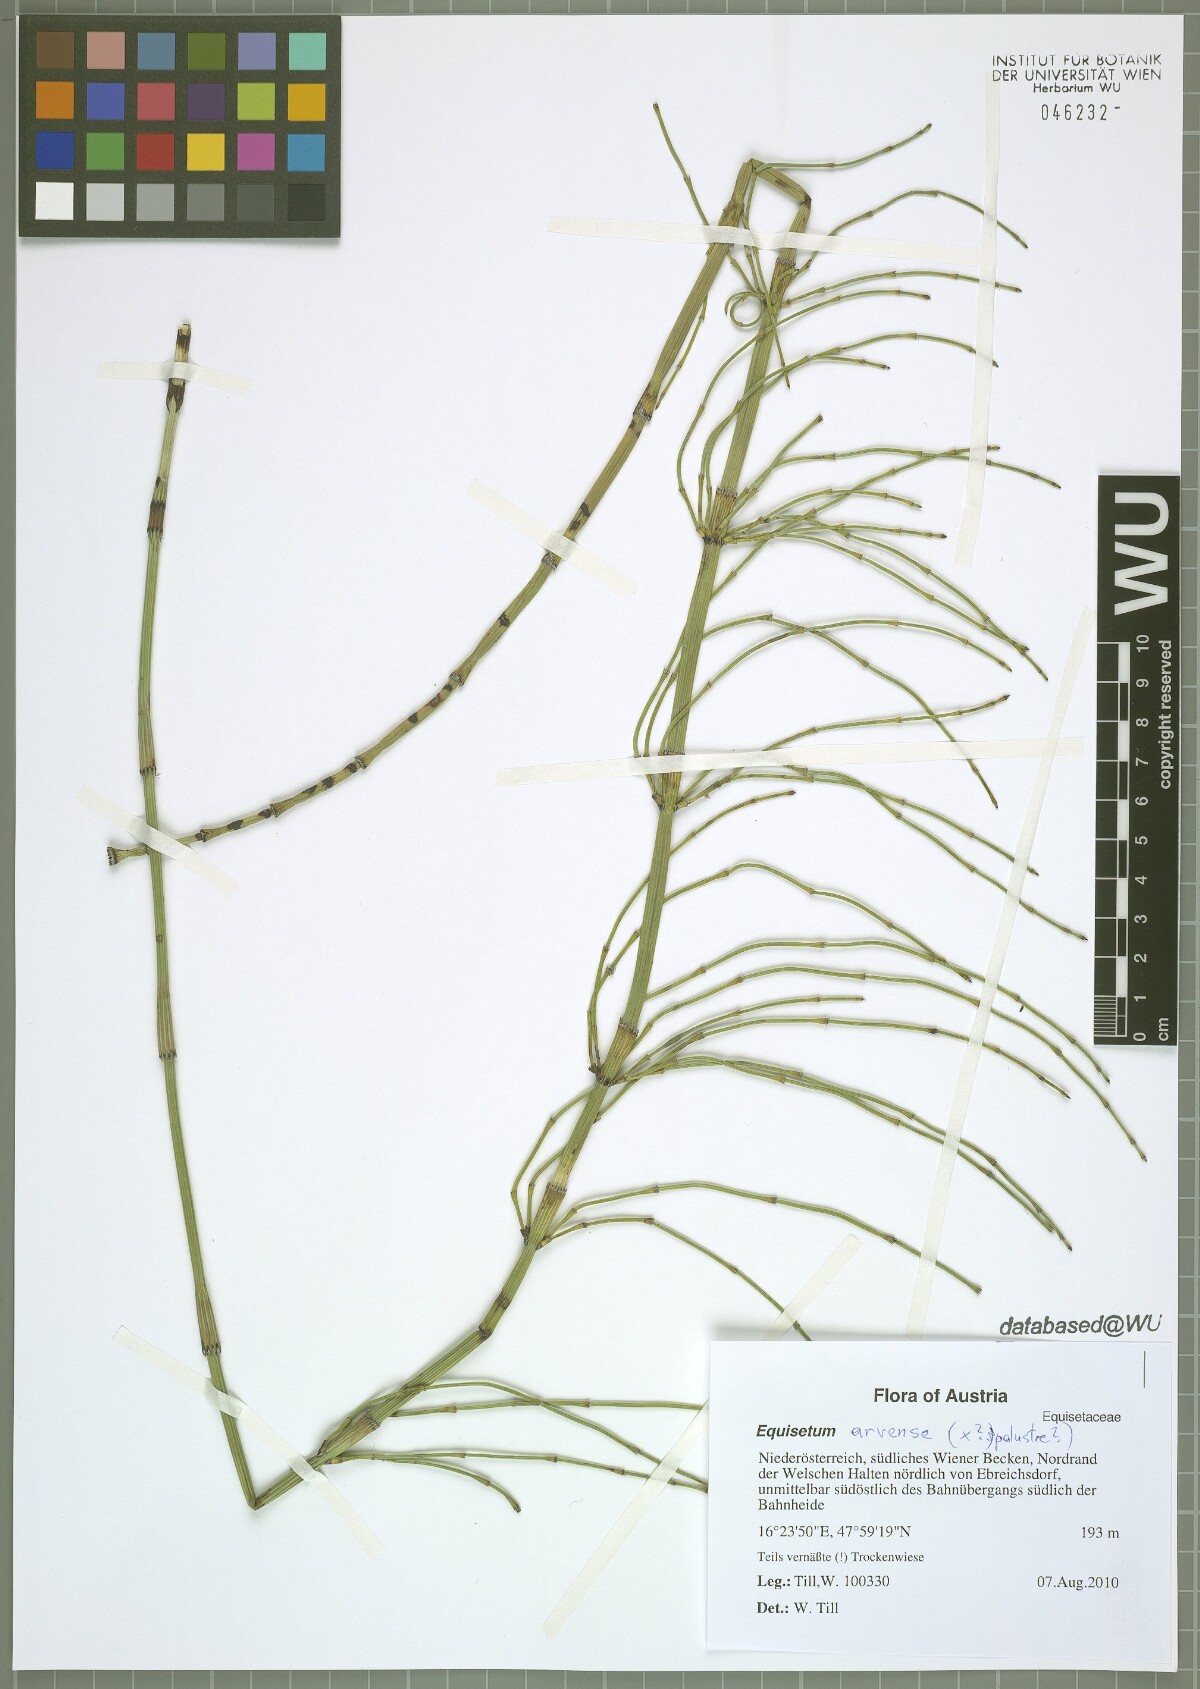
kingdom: Plantae
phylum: Tracheophyta
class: Polypodiopsida
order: Equisetales
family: Equisetaceae
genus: Equisetum
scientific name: Equisetum arvense
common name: Field horsetail
